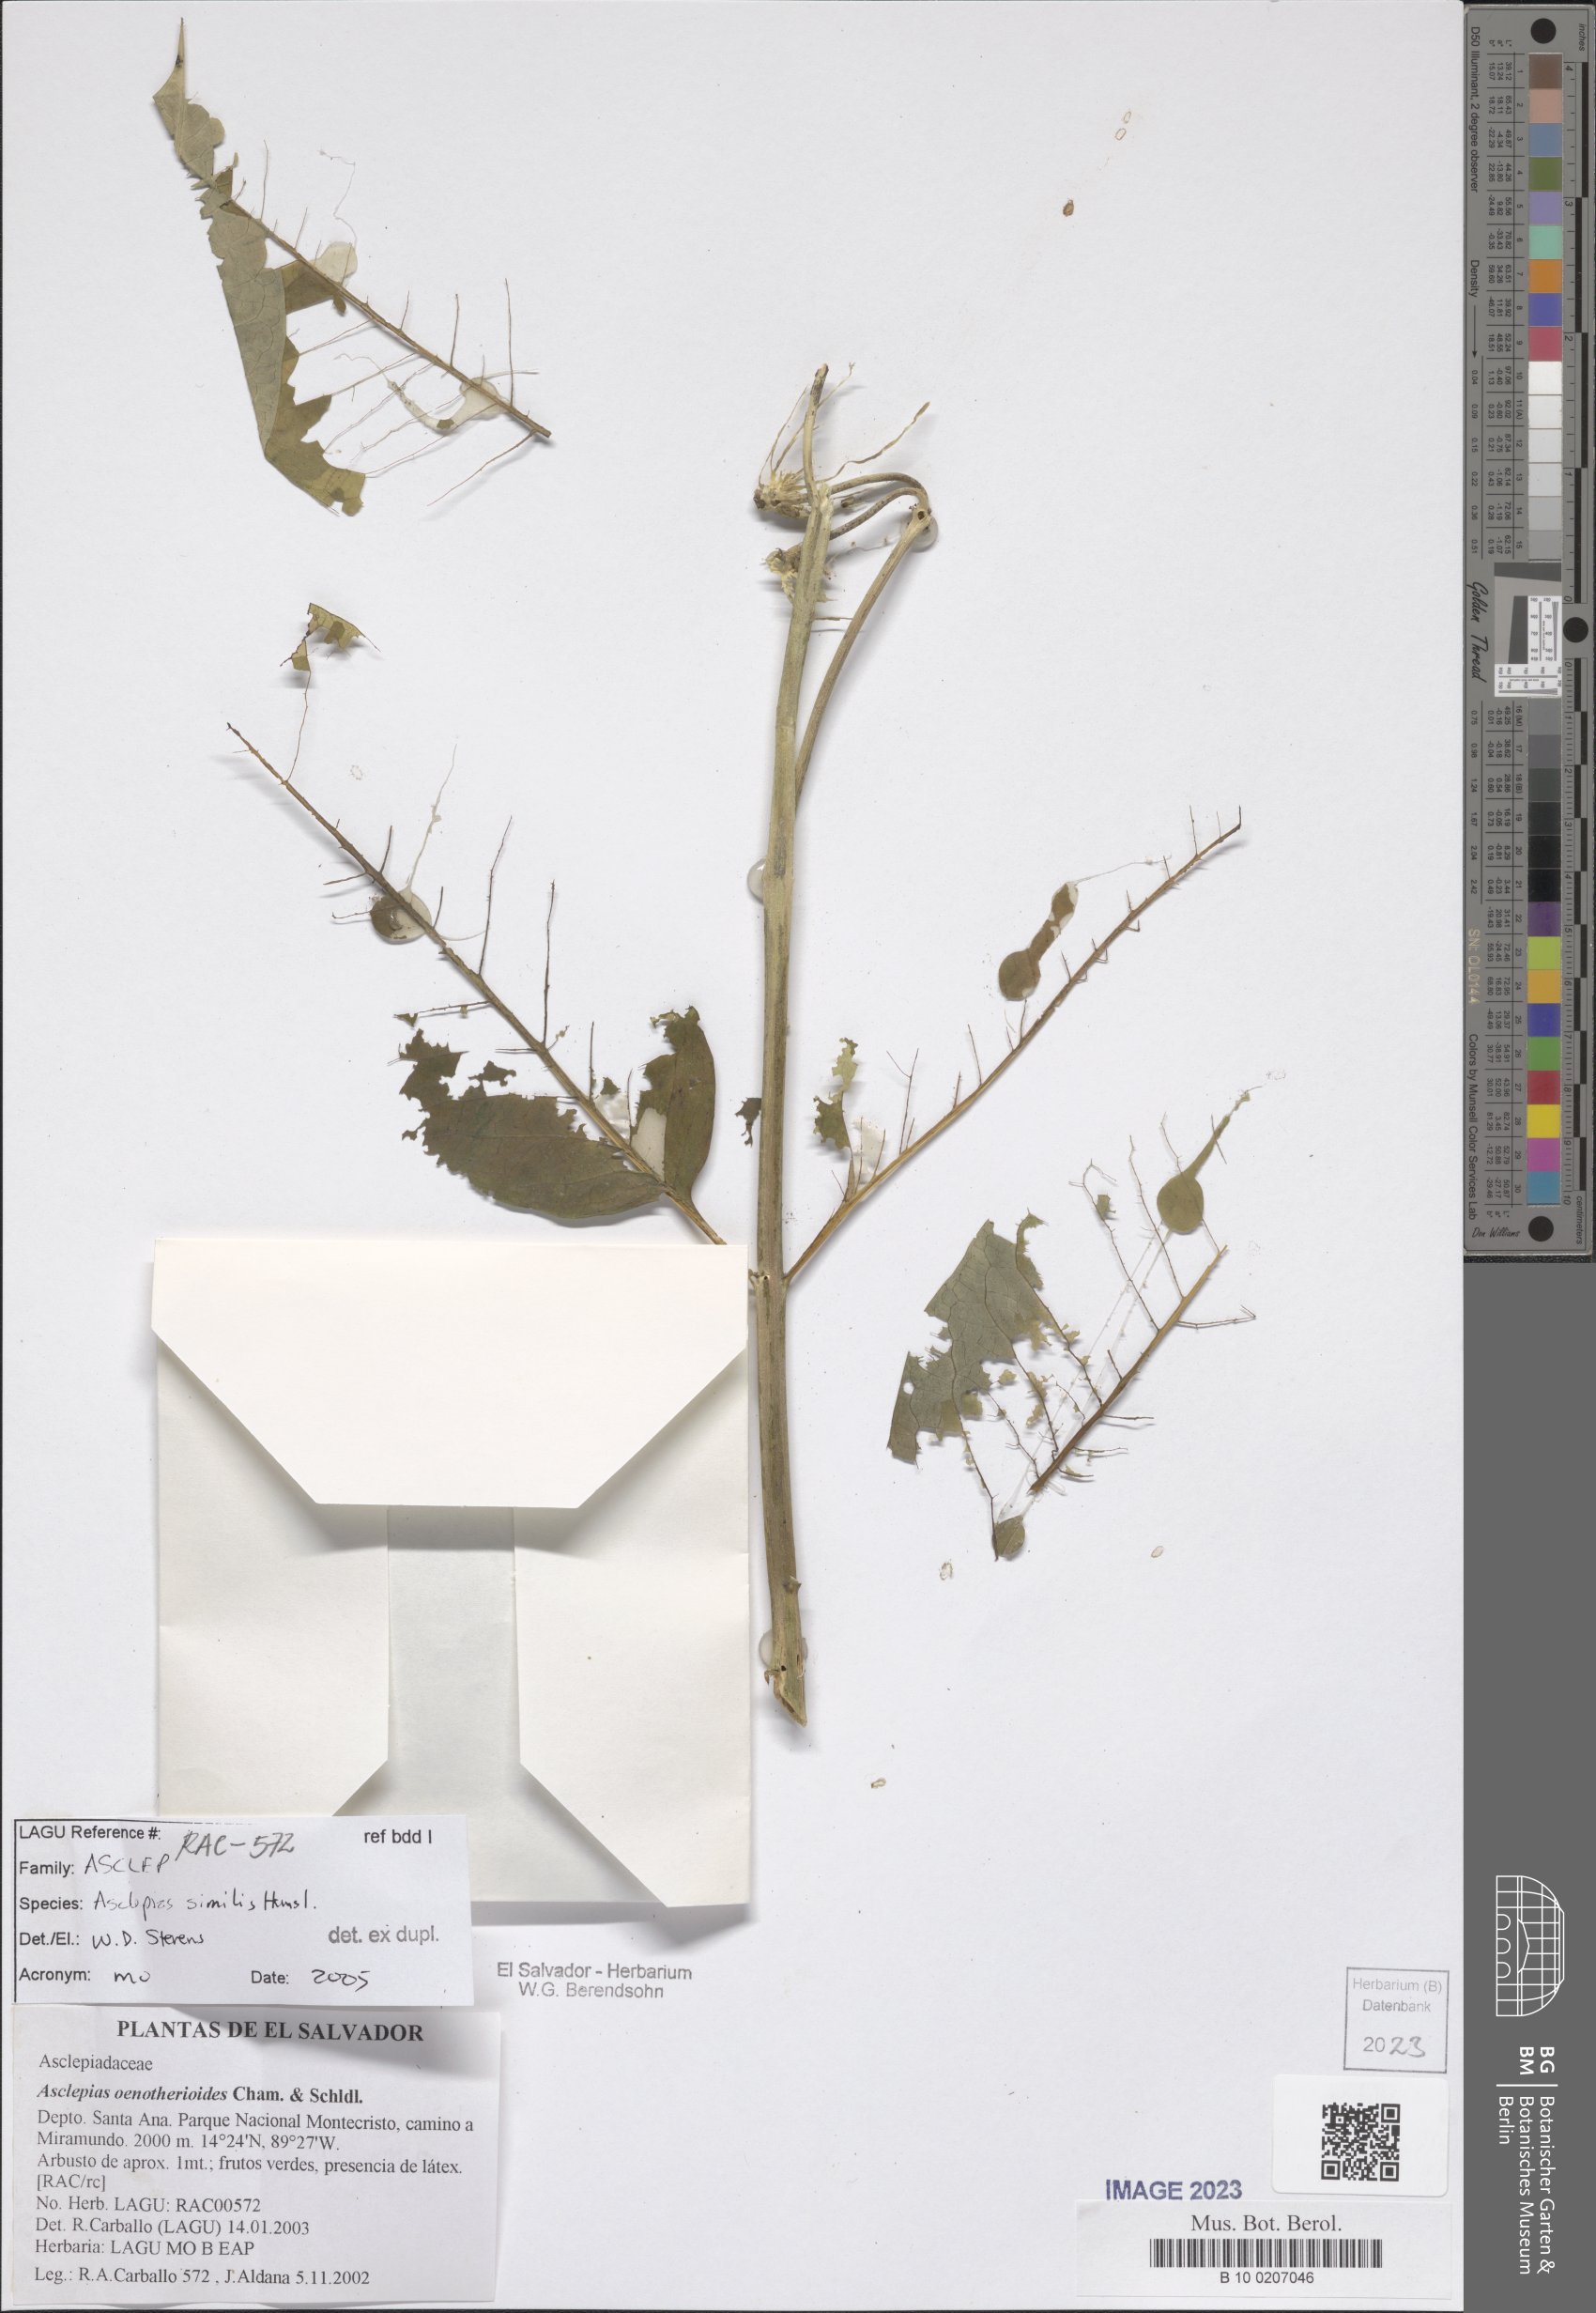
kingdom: Plantae
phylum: Tracheophyta
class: Magnoliopsida
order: Gentianales
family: Apocynaceae
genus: Asclepias
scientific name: Asclepias similis
